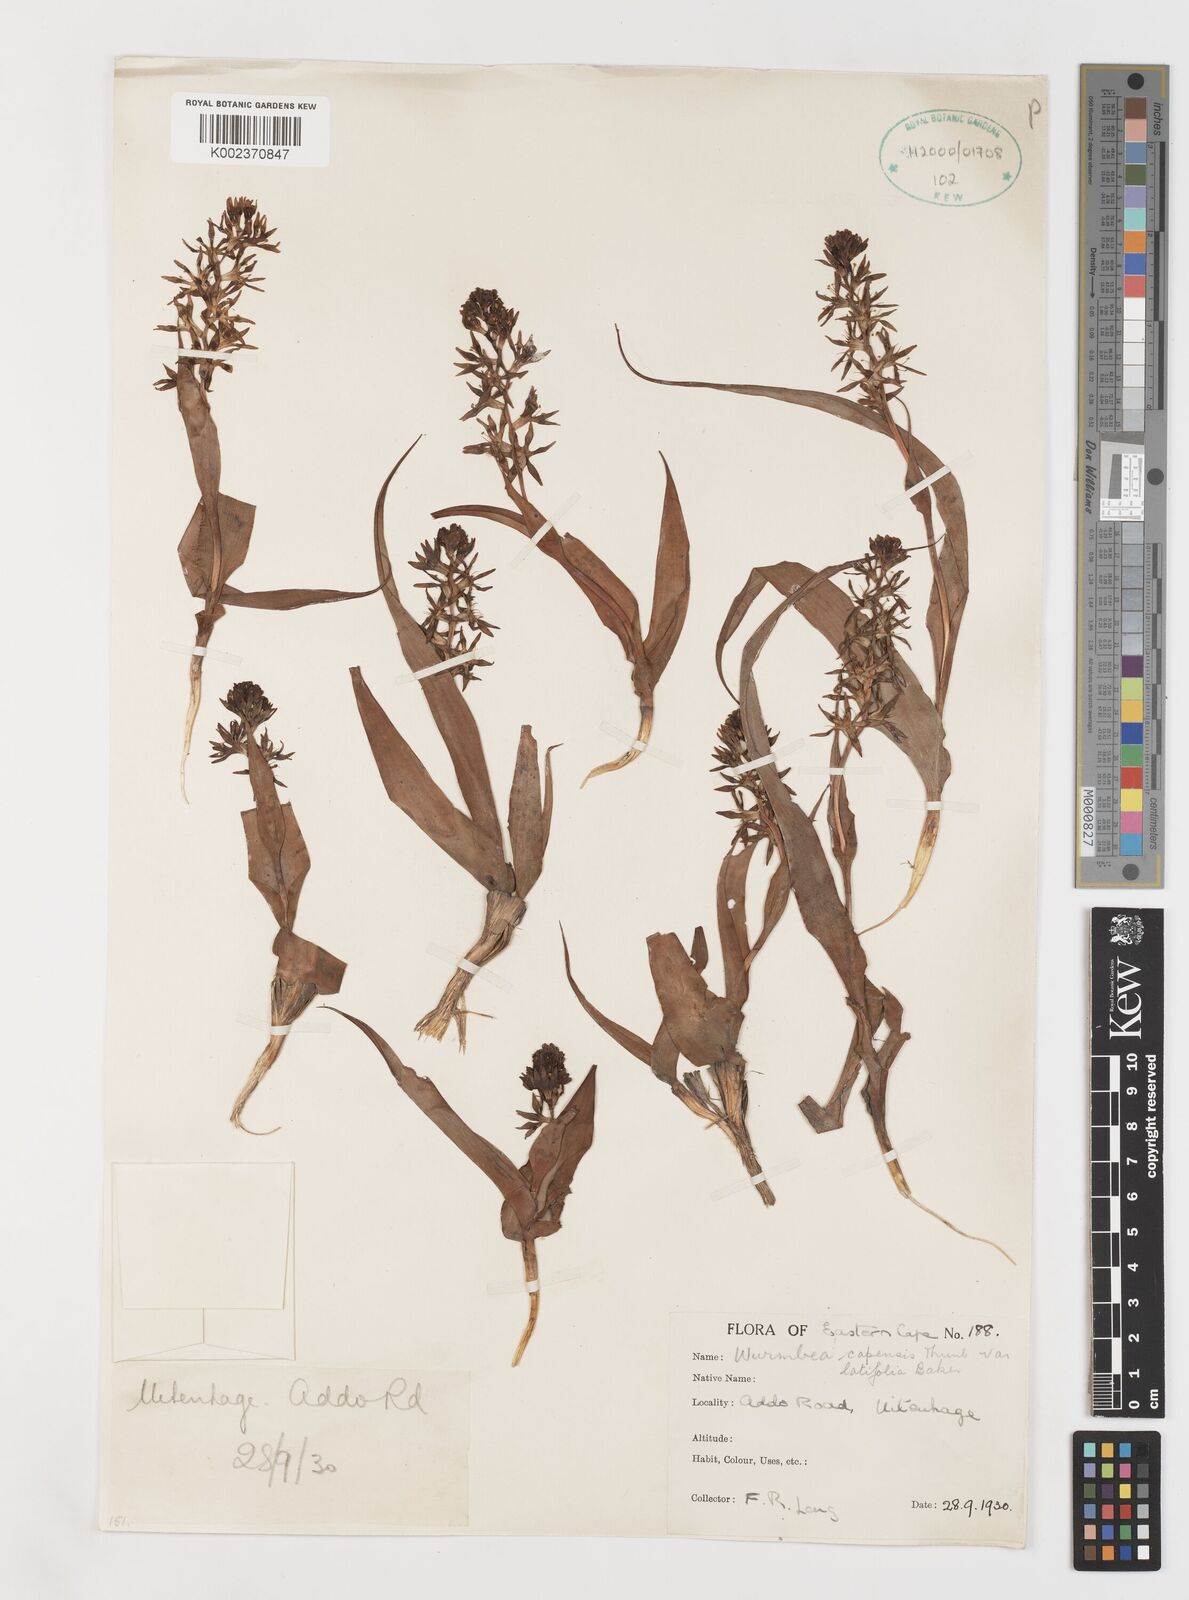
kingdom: Plantae
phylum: Tracheophyta
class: Liliopsida
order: Liliales
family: Colchicaceae
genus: Wurmbea
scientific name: Wurmbea capensis
